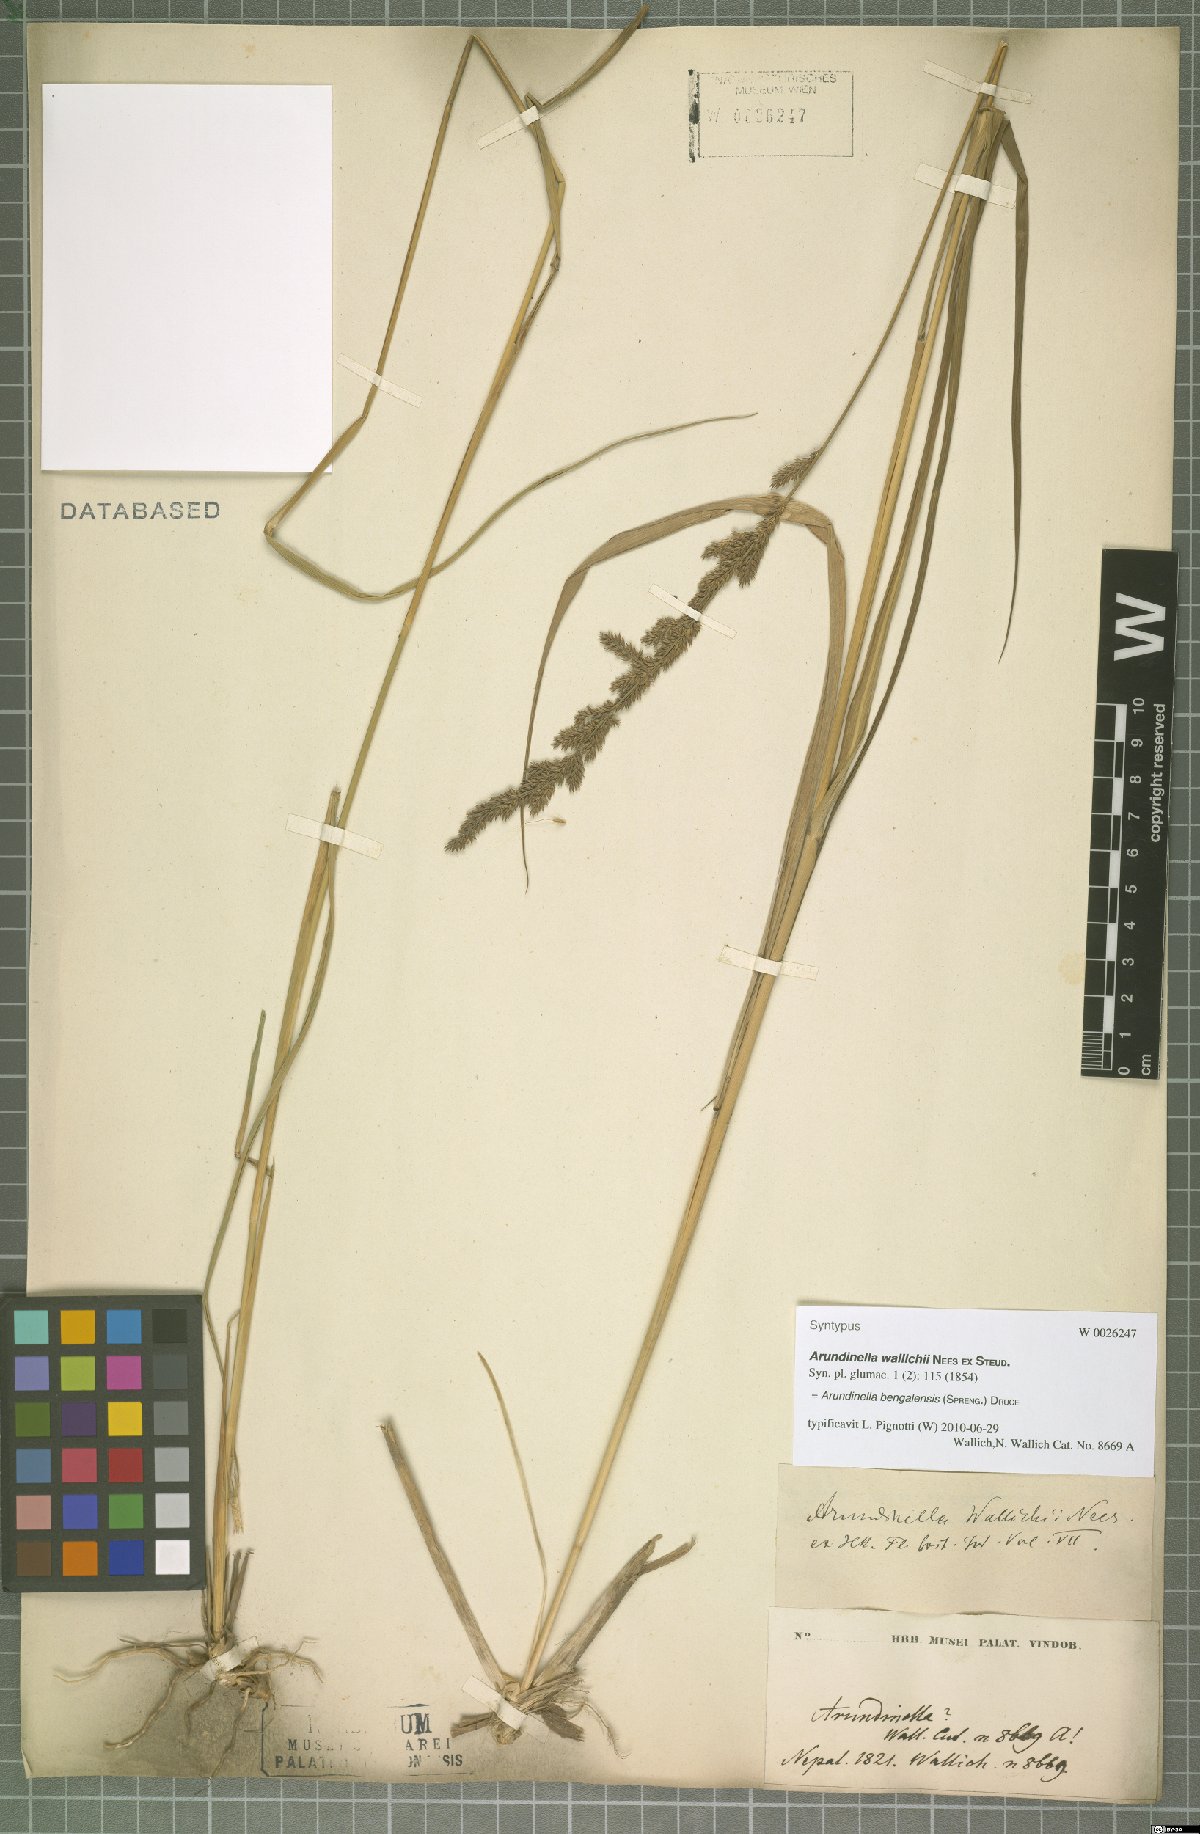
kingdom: Plantae
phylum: Tracheophyta
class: Liliopsida
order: Poales
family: Poaceae
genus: Arundinella
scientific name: Arundinella bengalensis
